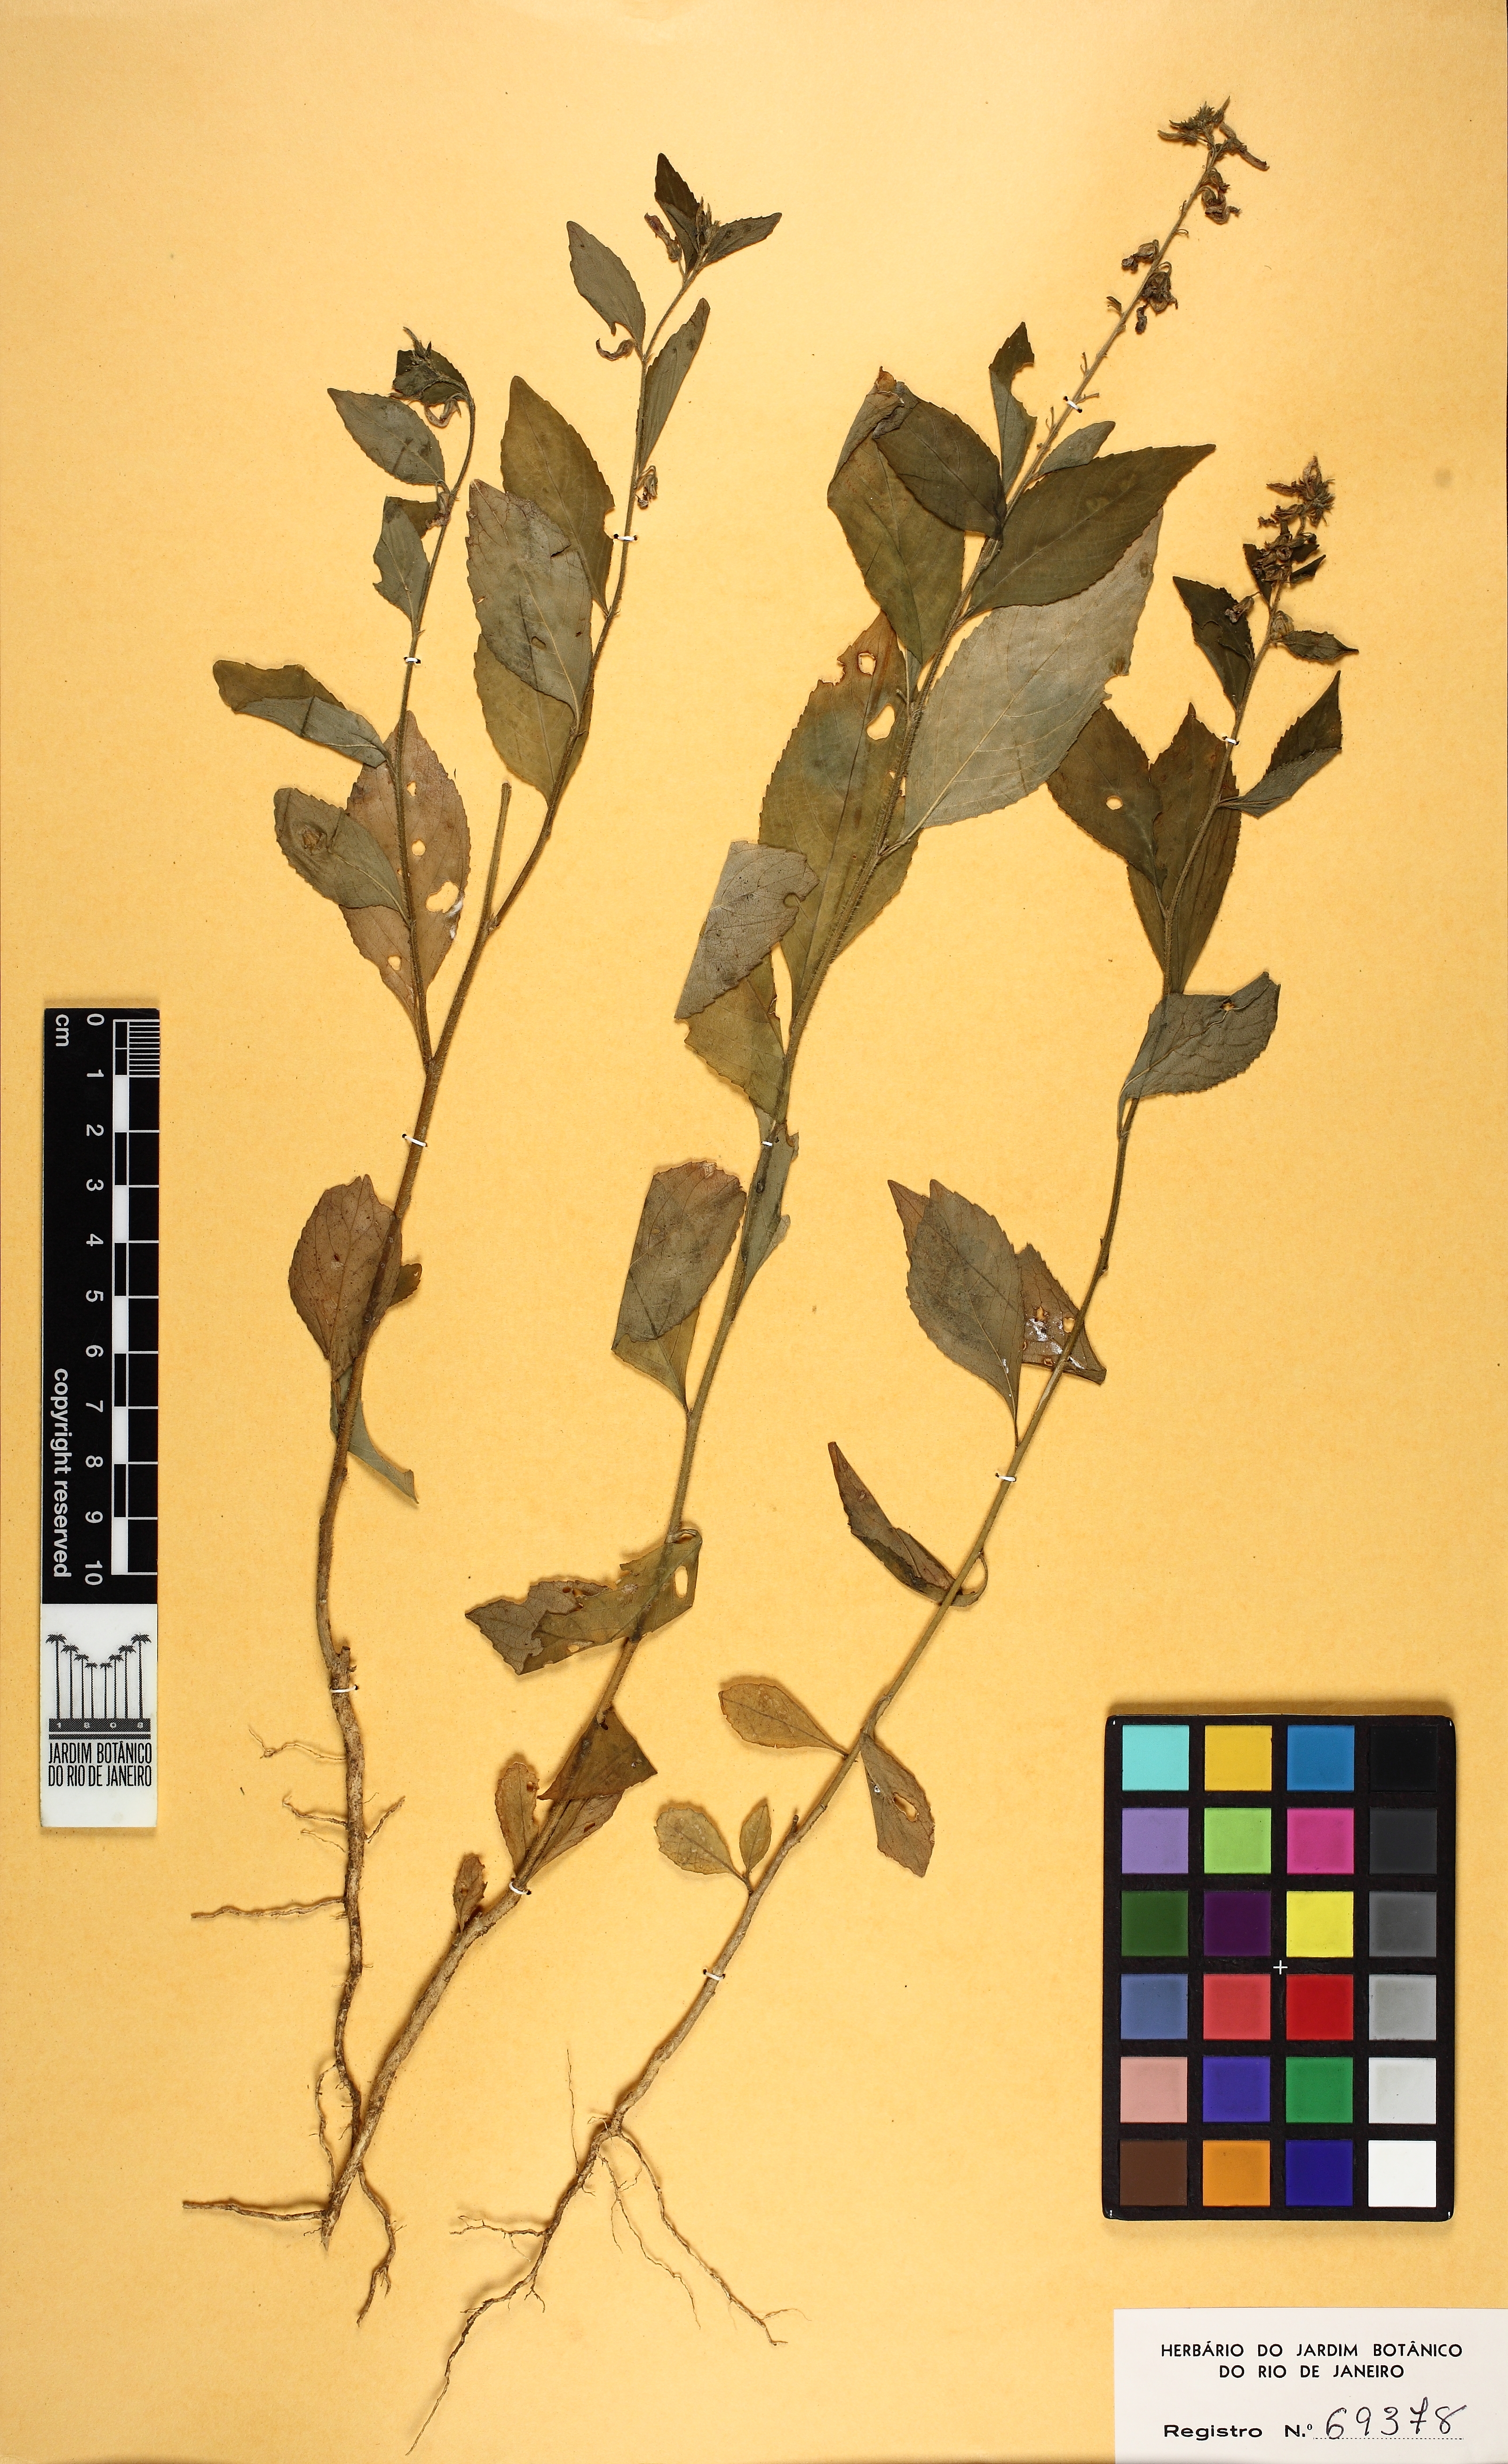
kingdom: Plantae
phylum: Tracheophyta
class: Magnoliopsida
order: Malpighiales
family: Violaceae
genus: Pombalia
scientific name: Pombalia communis
